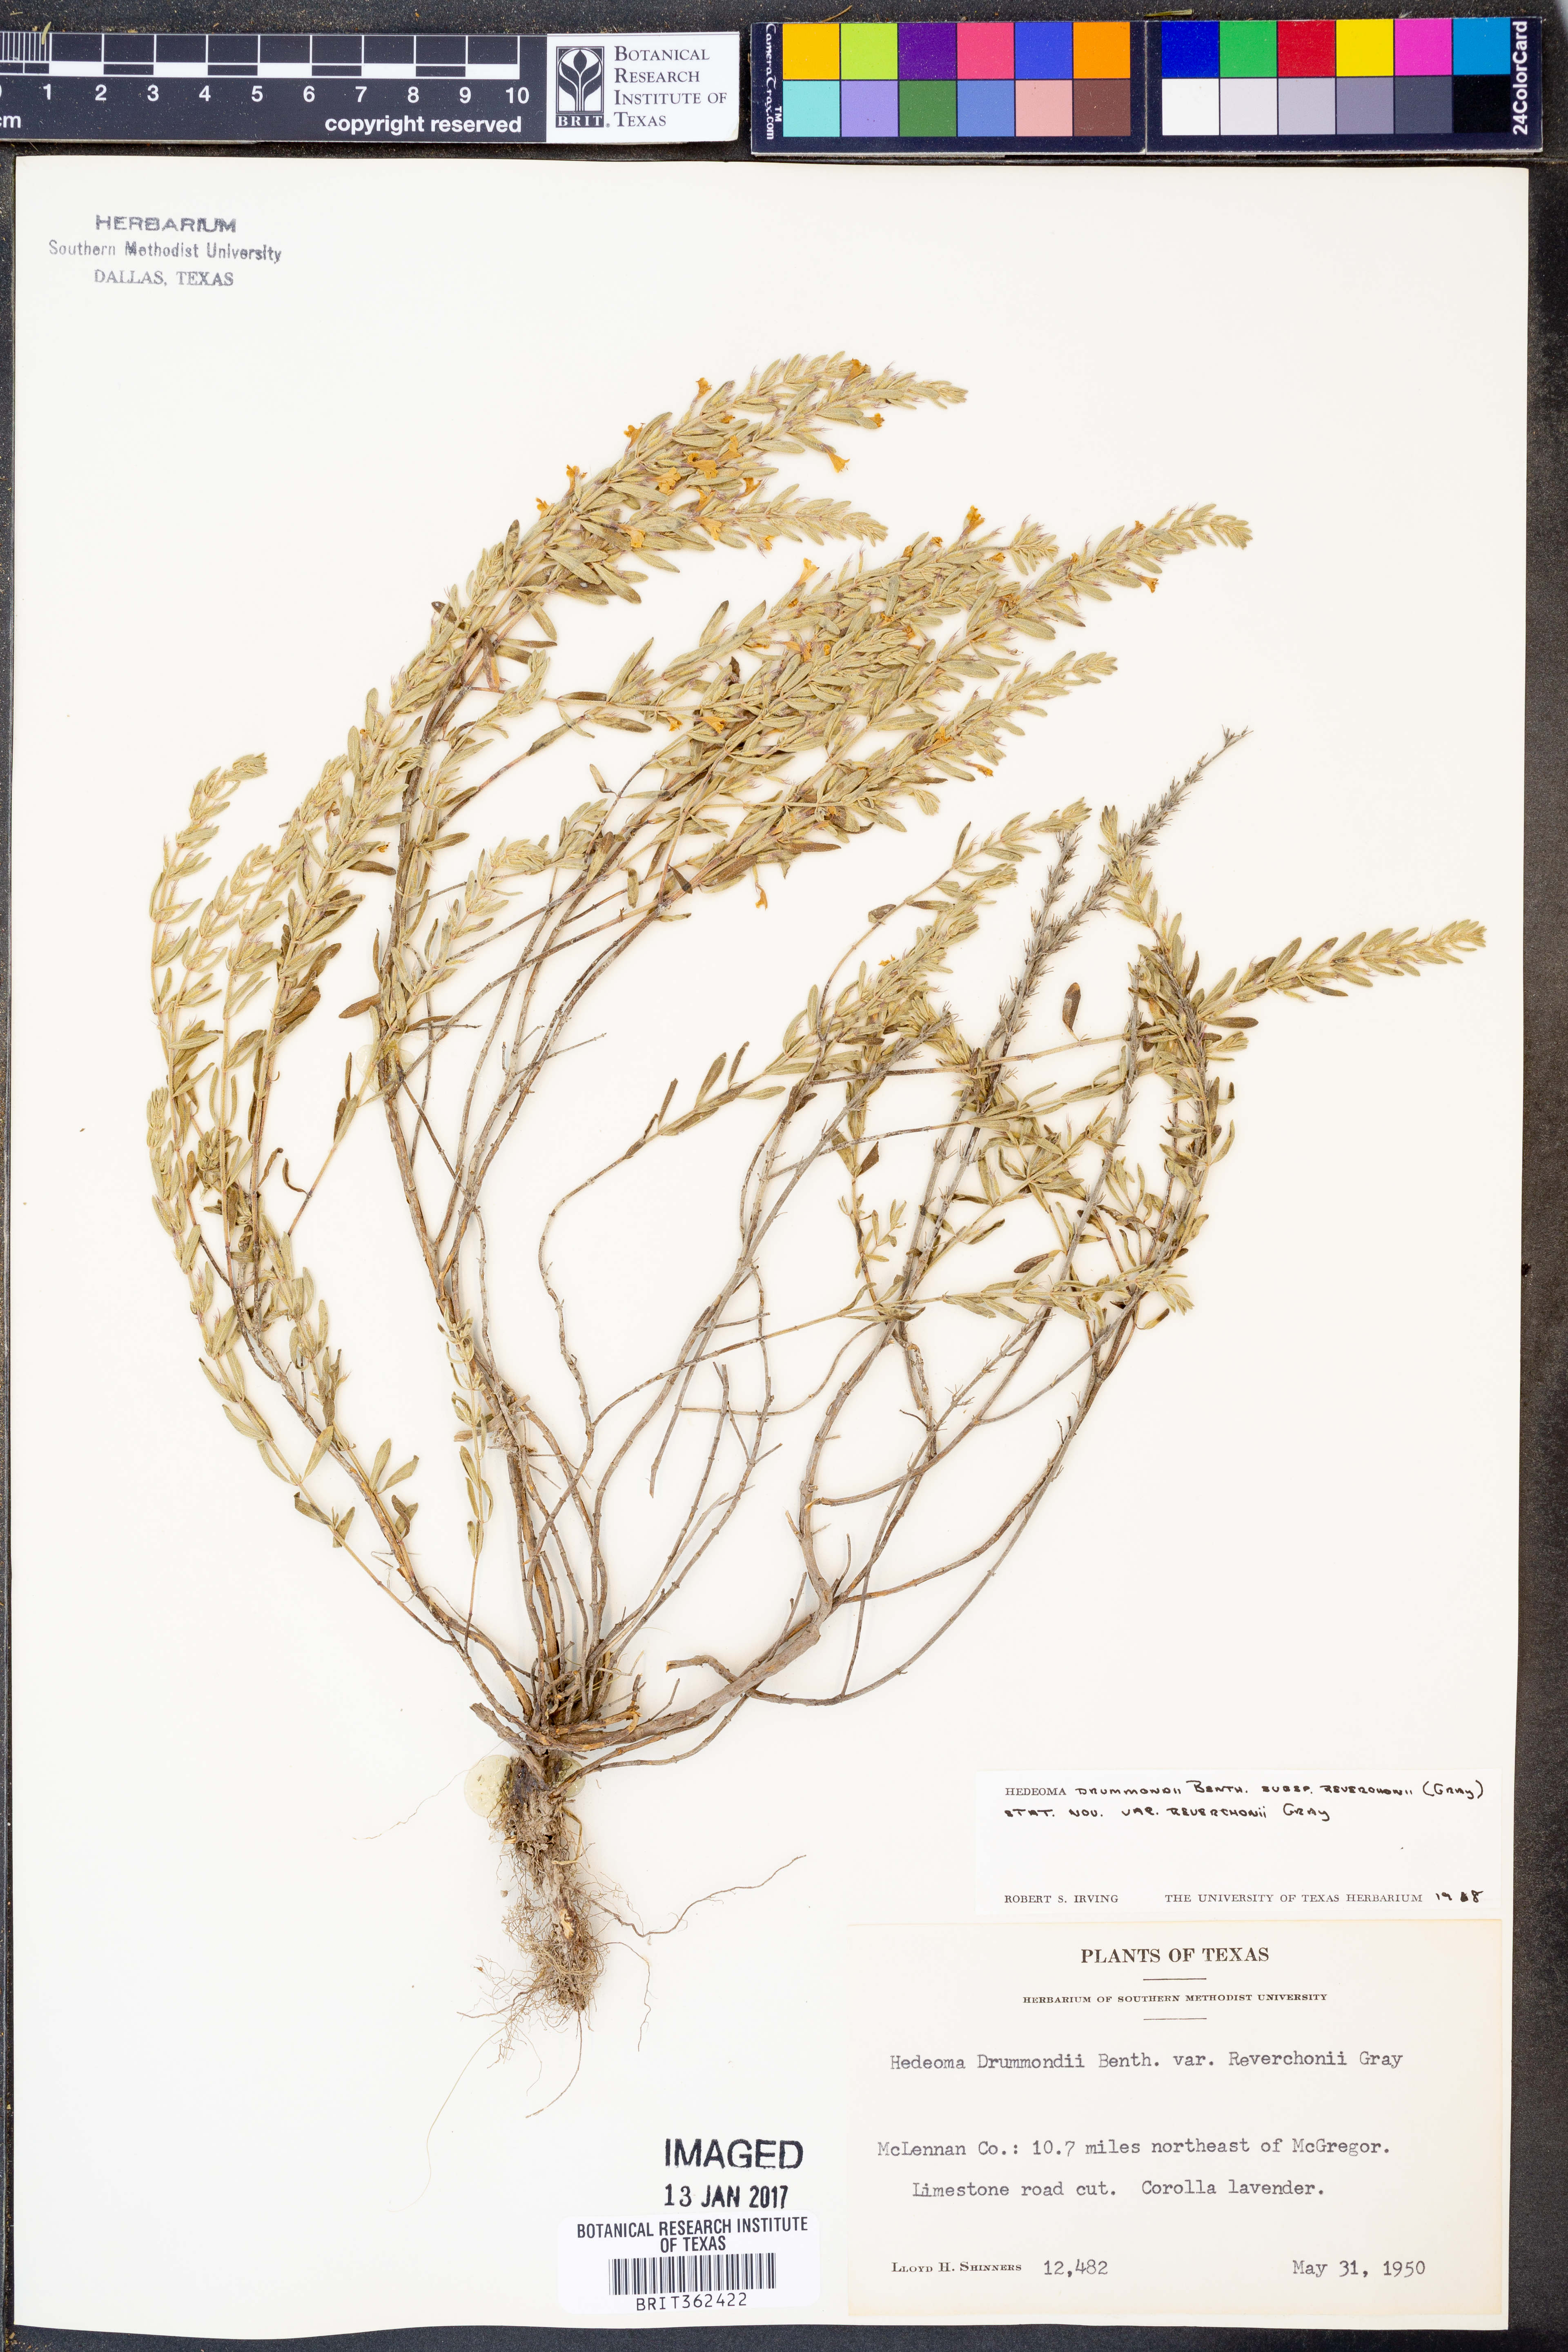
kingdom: Plantae
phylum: Tracheophyta
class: Magnoliopsida
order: Lamiales
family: Lamiaceae
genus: Hedeoma
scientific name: Hedeoma drummondii
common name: New mexico pennyroyal
